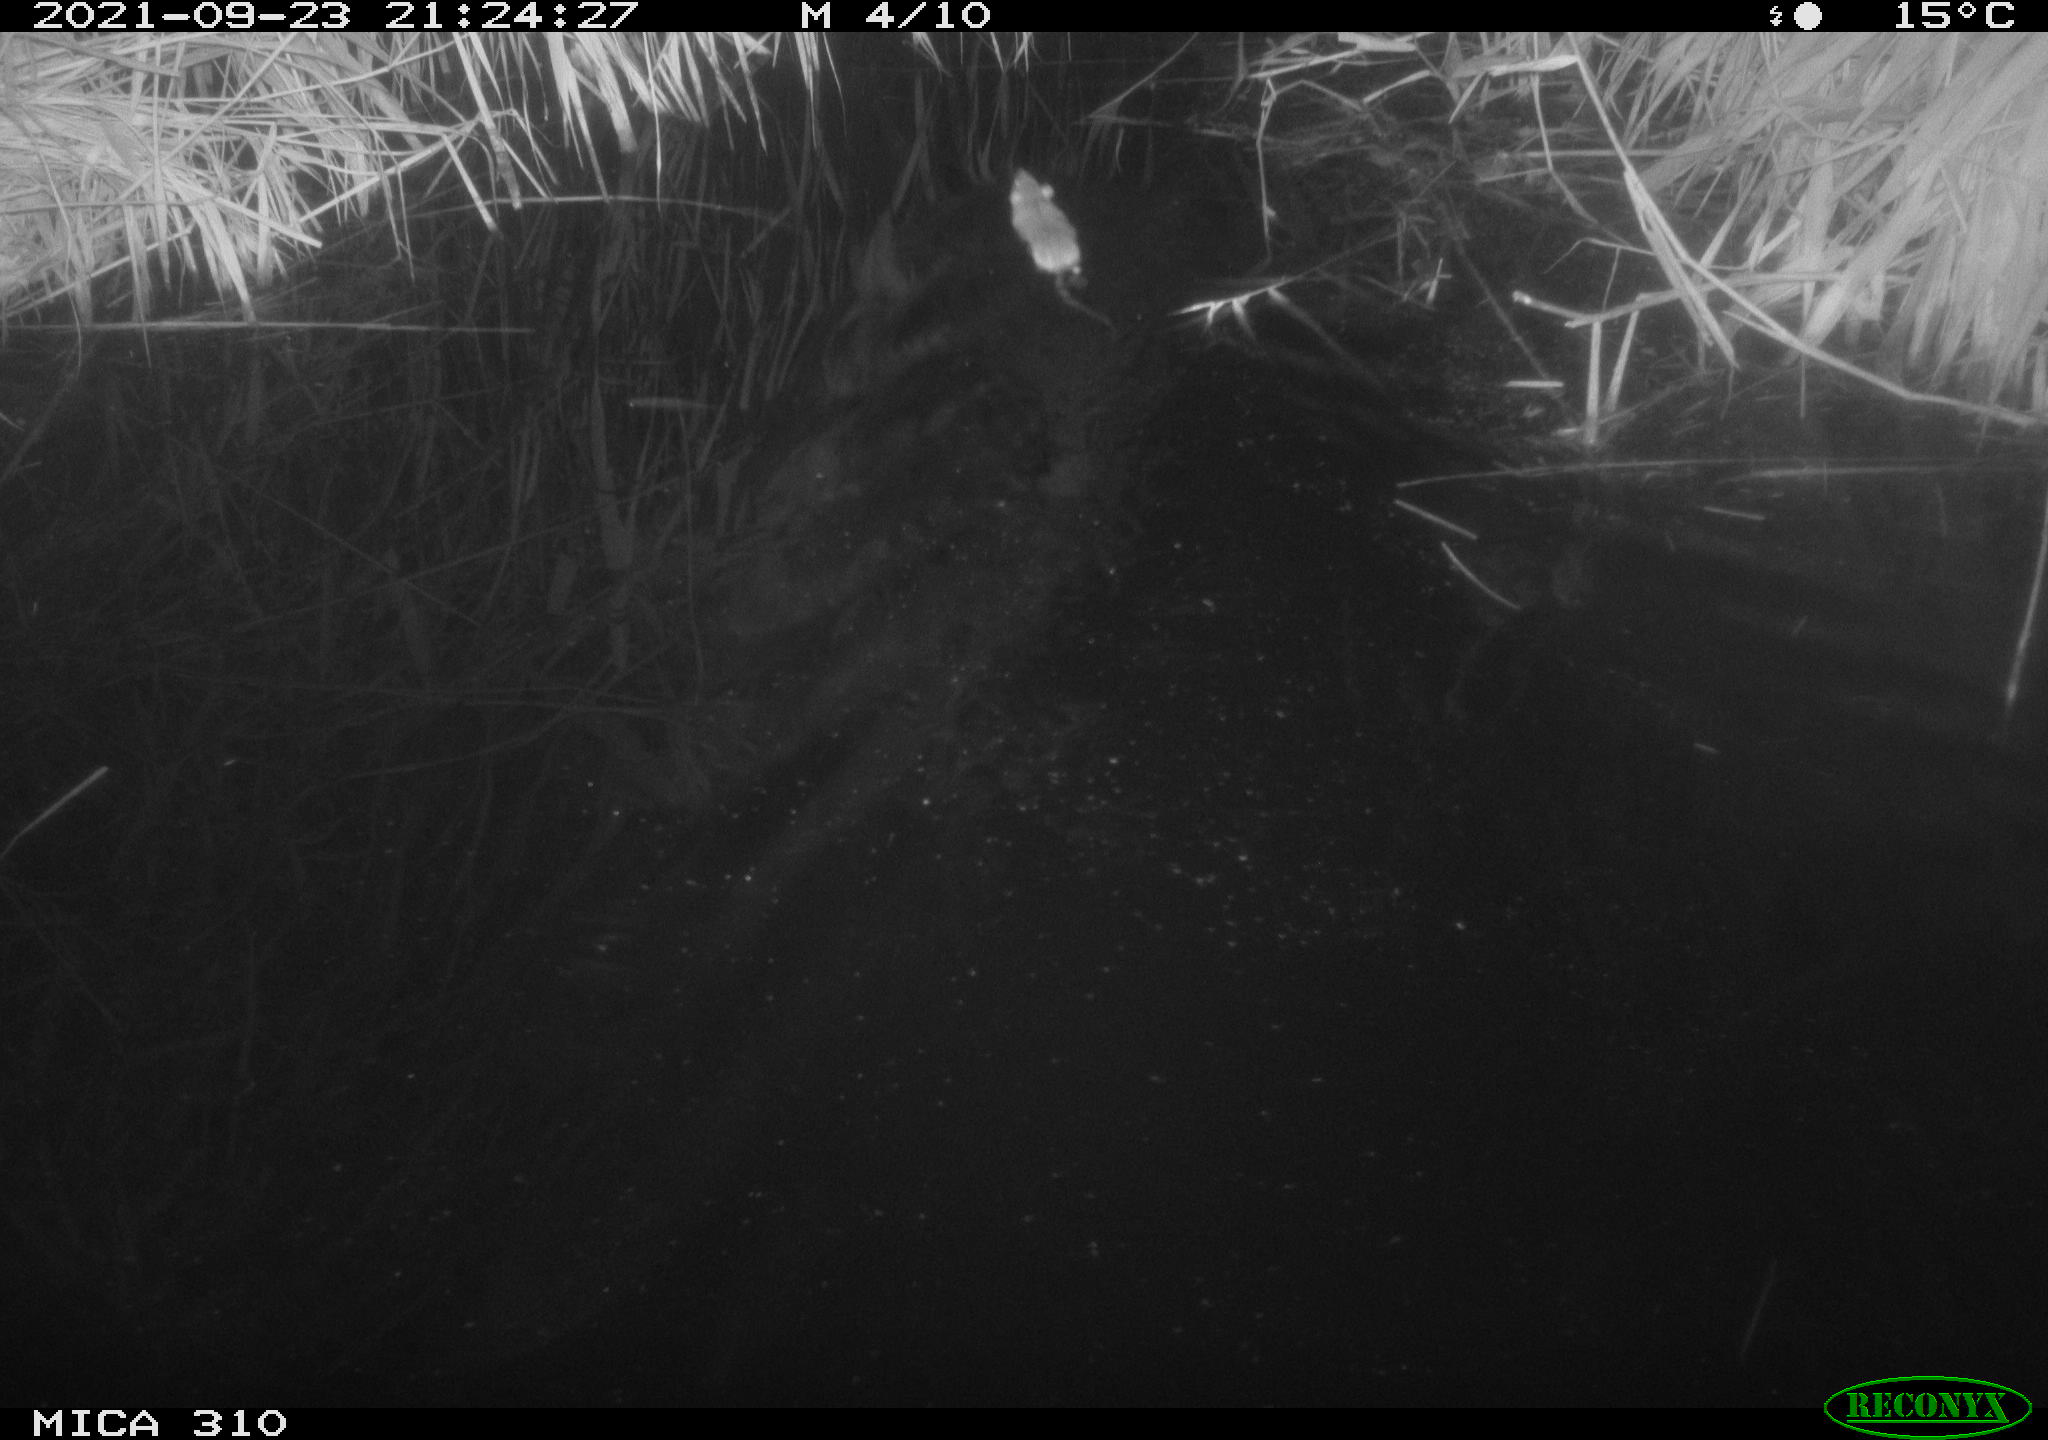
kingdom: Animalia
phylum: Chordata
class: Mammalia
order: Rodentia
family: Muridae
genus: Rattus
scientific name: Rattus norvegicus
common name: Brown rat
